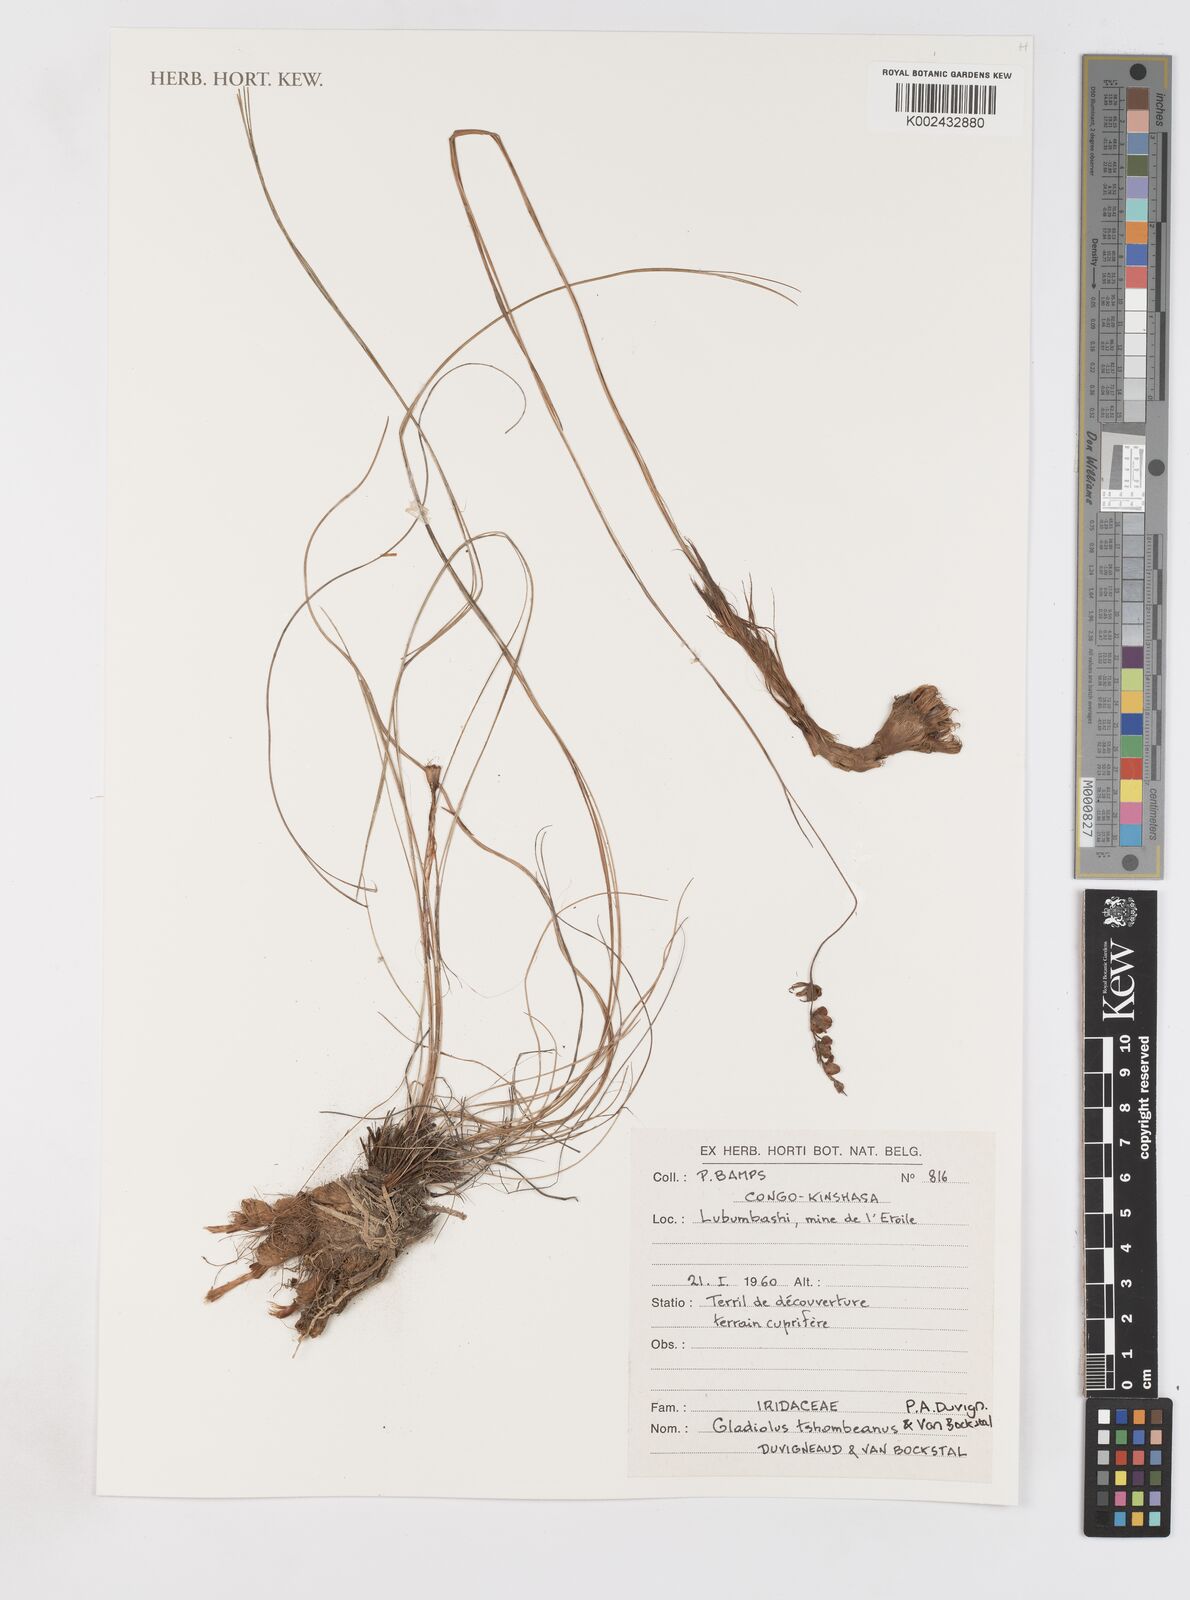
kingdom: Plantae
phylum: Tracheophyta
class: Liliopsida
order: Asparagales
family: Iridaceae
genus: Gladiolus
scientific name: Gladiolus tshombeanus
